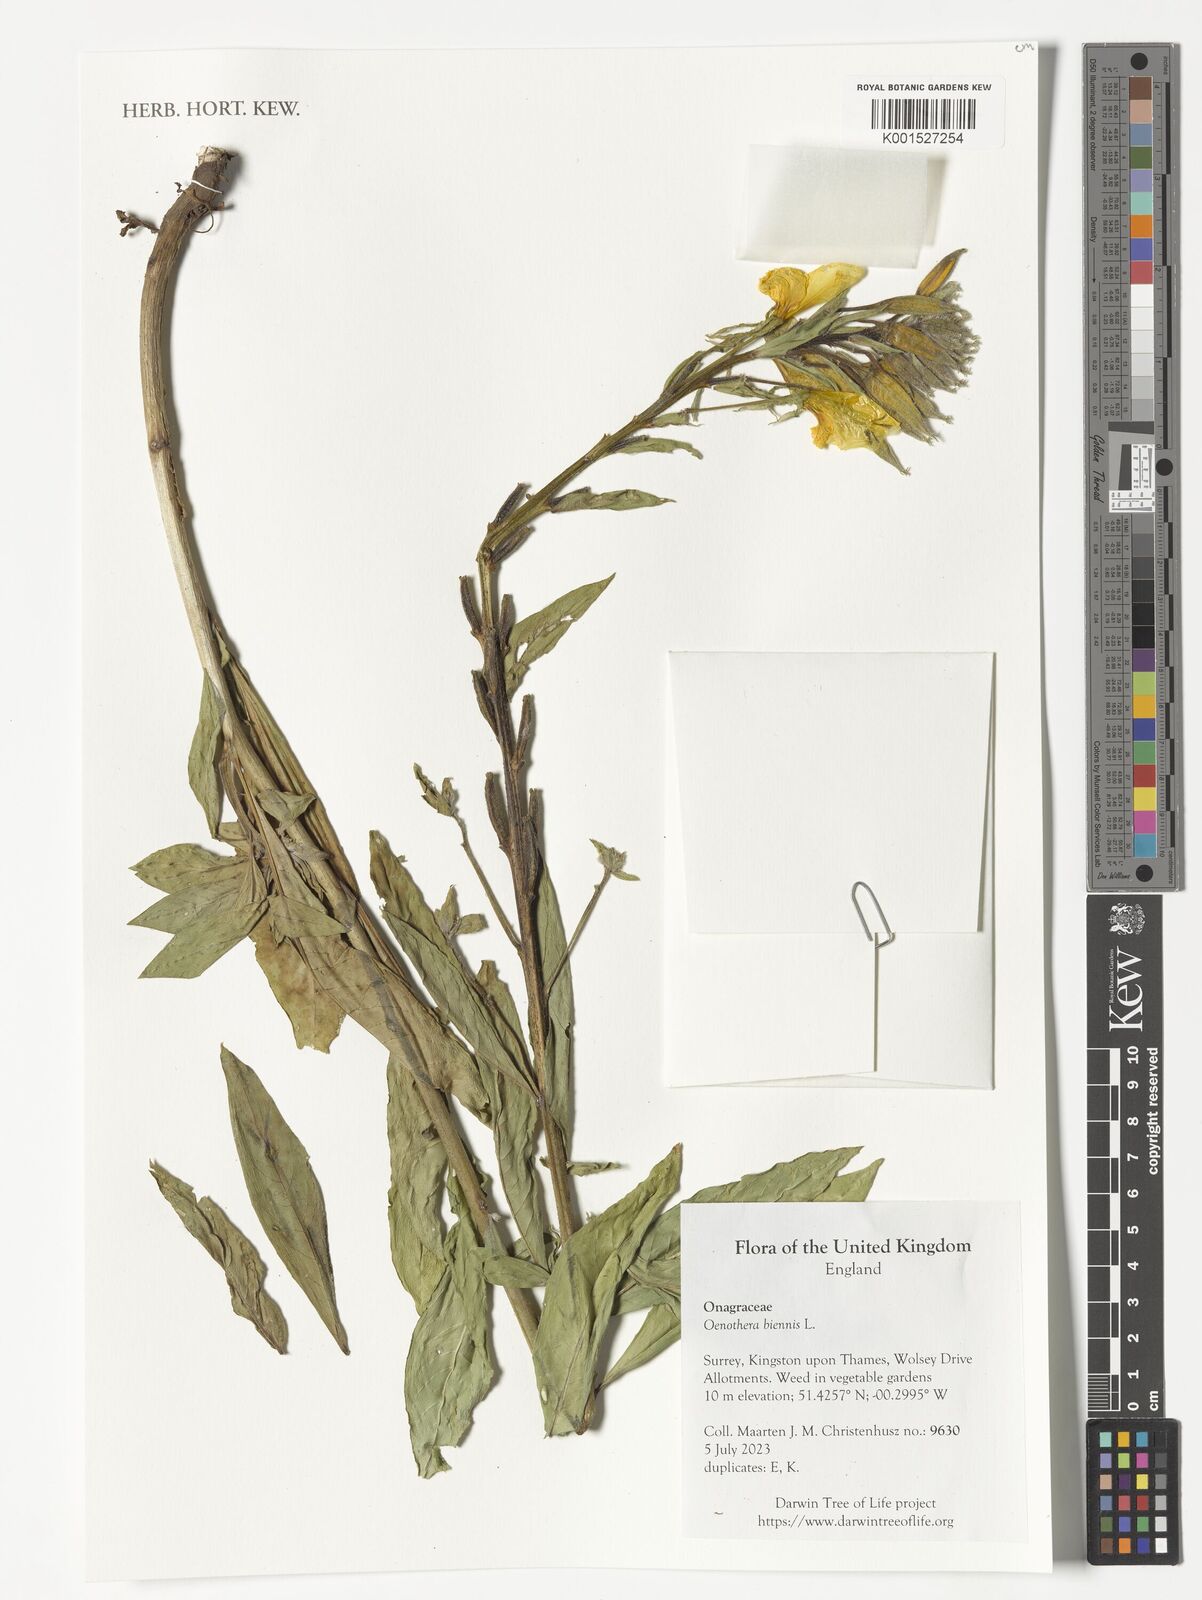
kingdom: Plantae
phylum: Tracheophyta
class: Magnoliopsida
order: Myrtales
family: Onagraceae
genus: Oenothera
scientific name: Oenothera biennis
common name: Common evening-primrose
